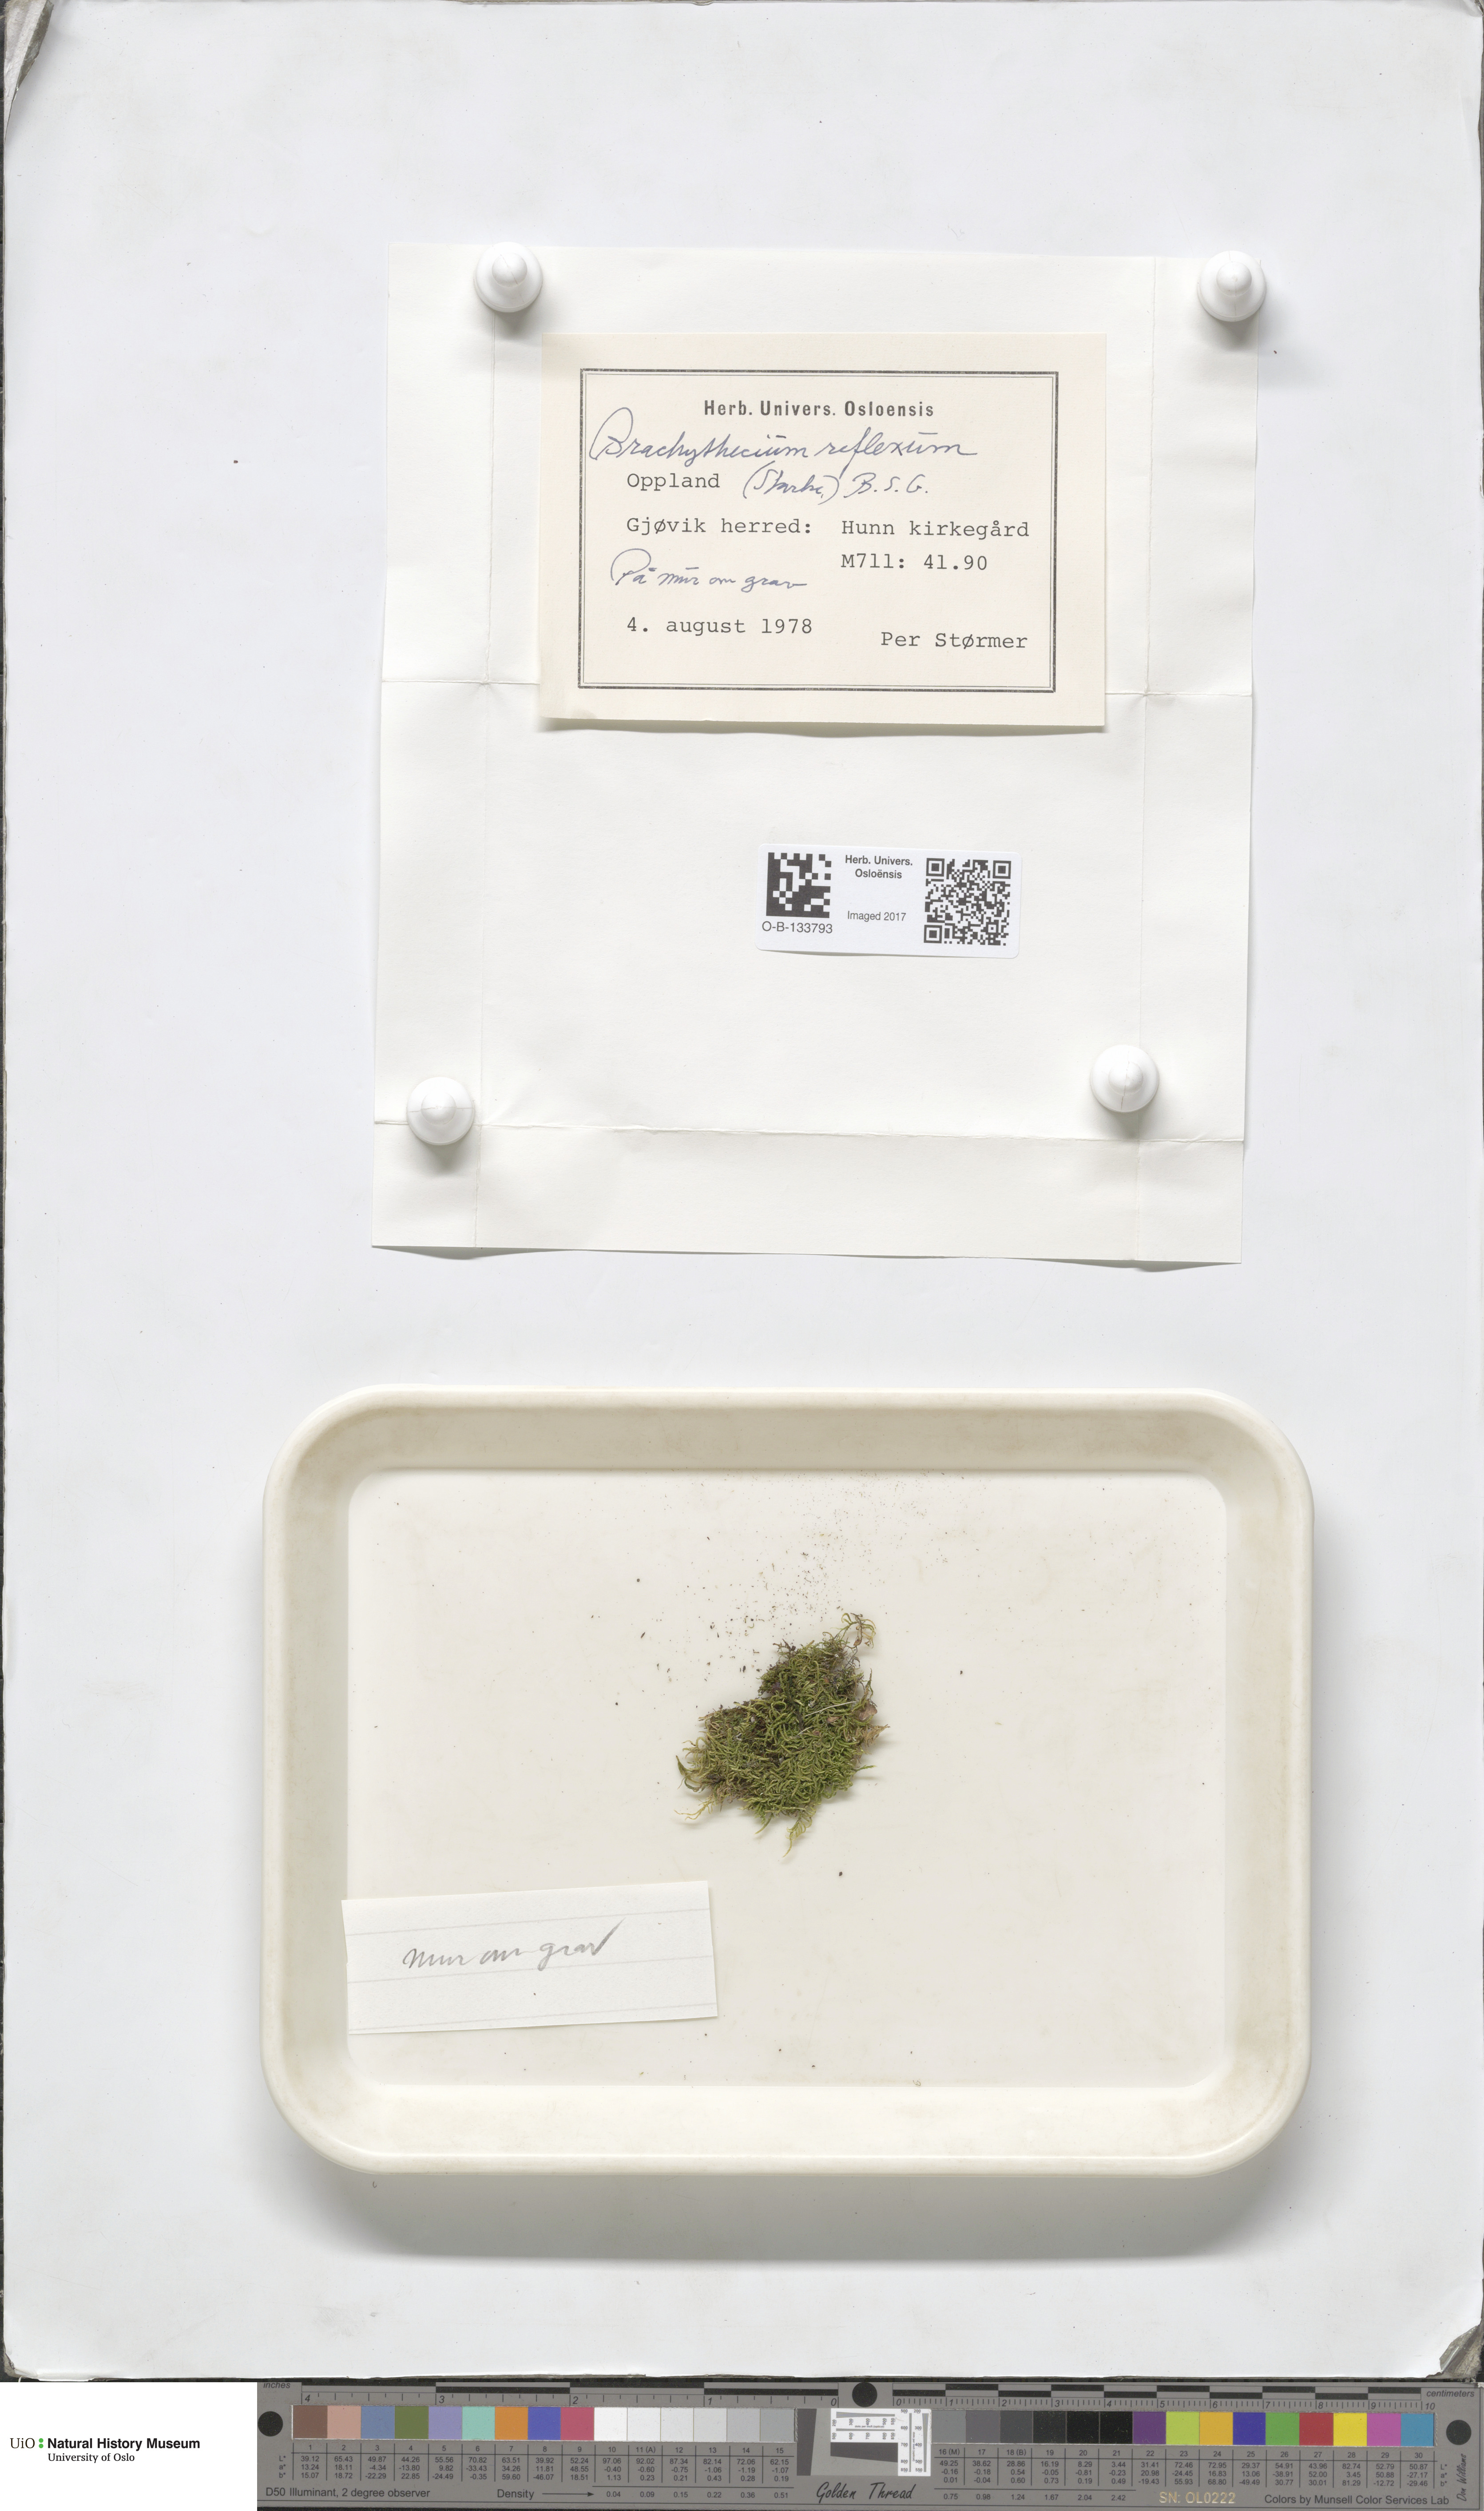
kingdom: Plantae
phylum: Bryophyta
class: Bryopsida
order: Hypnales
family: Brachytheciaceae
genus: Sciuro-hypnum
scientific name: Sciuro-hypnum reflexum
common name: Reflexed feather-moss
